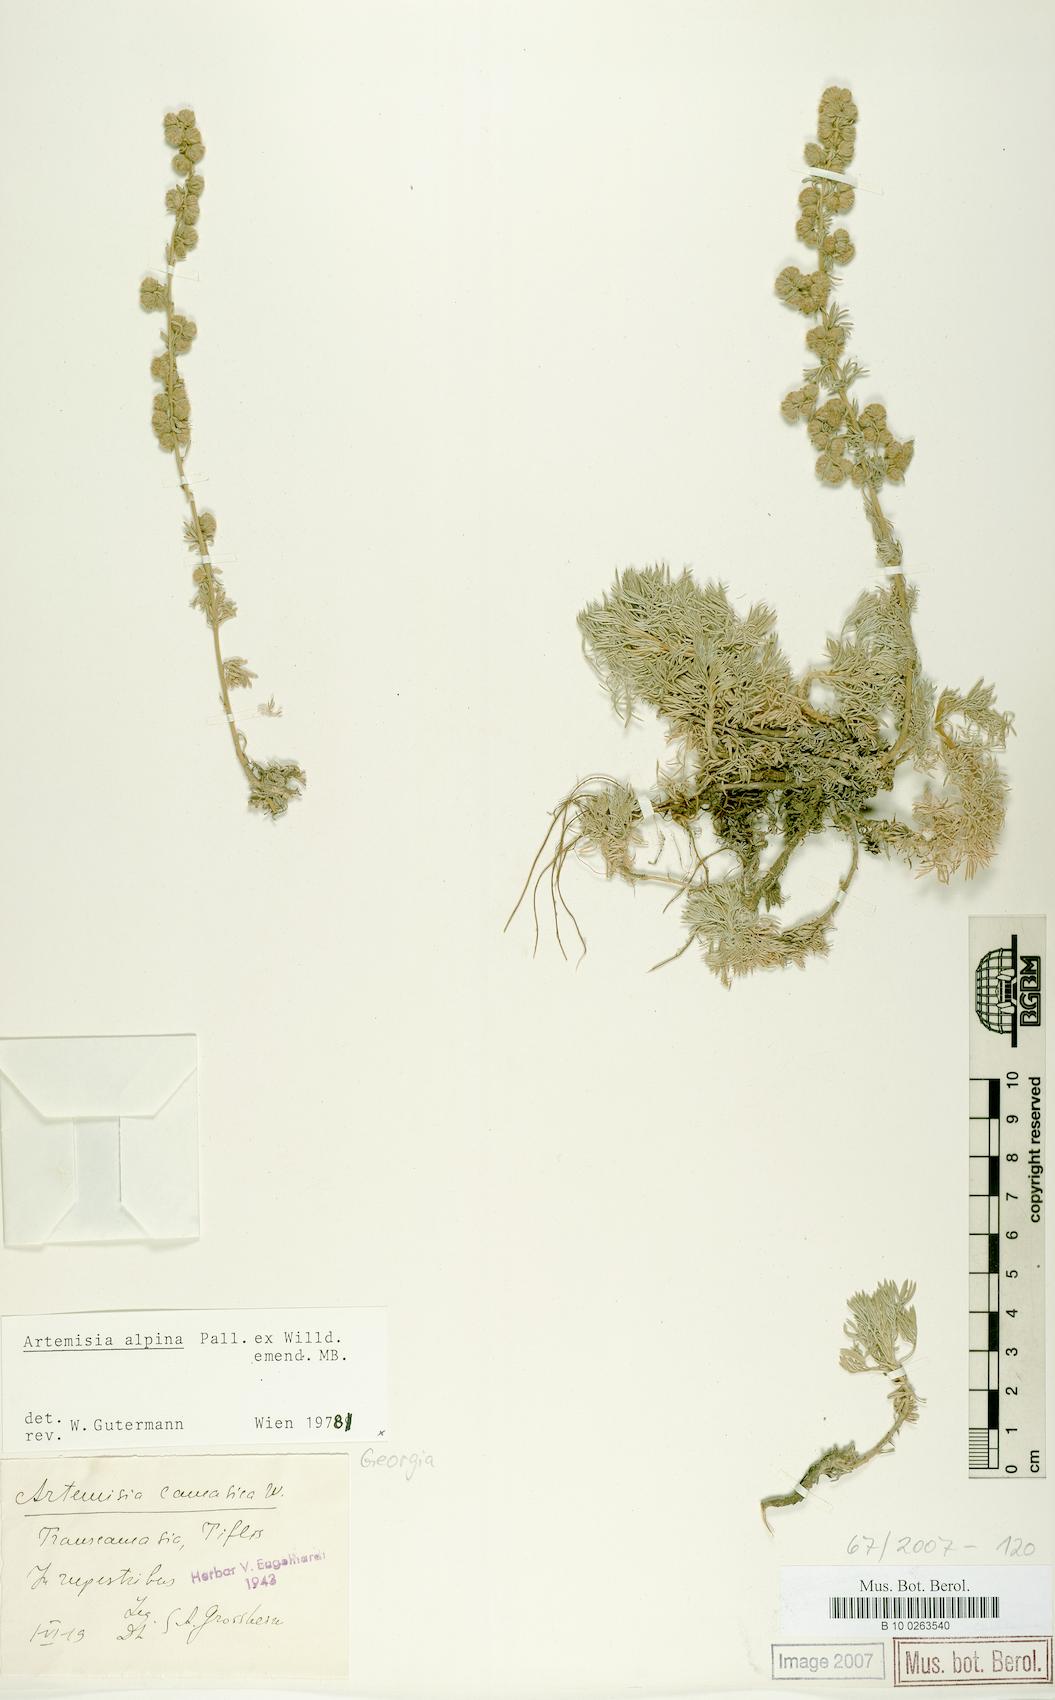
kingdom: Plantae
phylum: Tracheophyta
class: Magnoliopsida
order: Asterales
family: Asteraceae
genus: Artemisia
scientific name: Artemisia alpina
